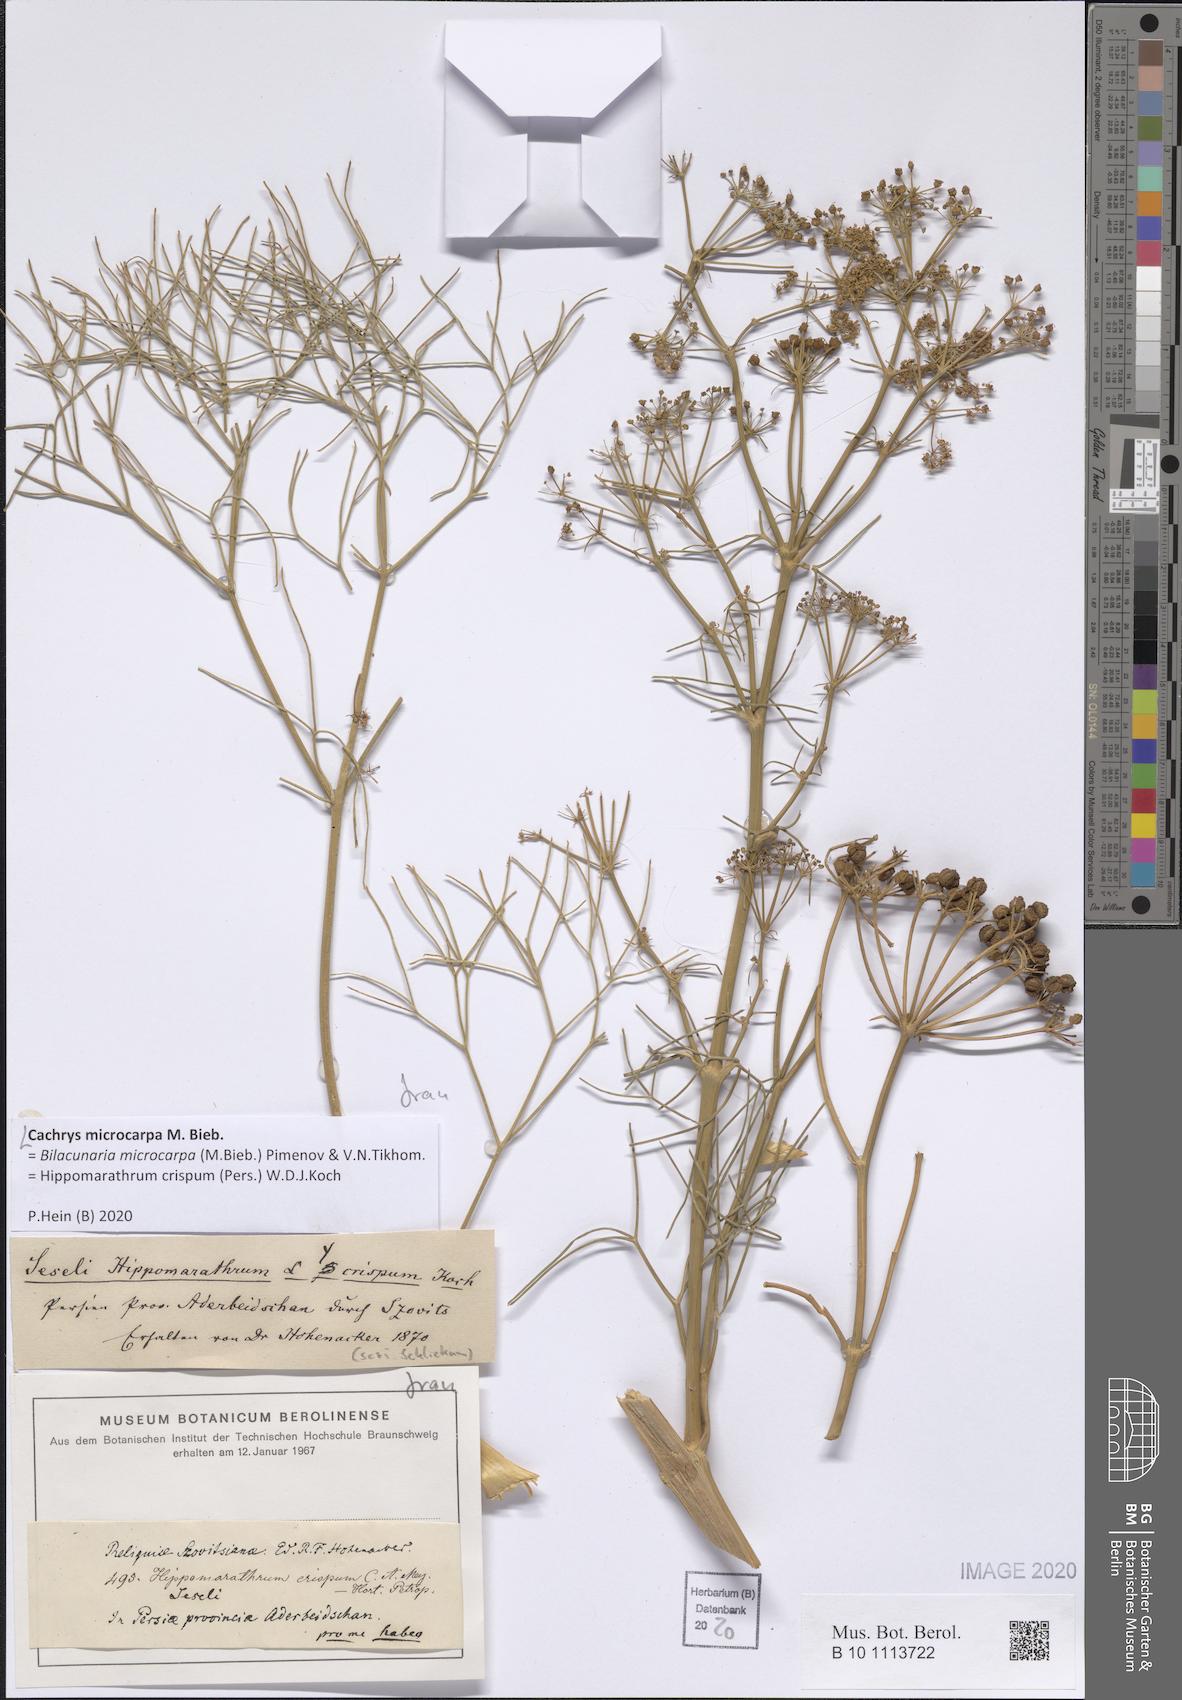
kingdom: Plantae
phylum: Tracheophyta
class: Magnoliopsida
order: Apiales
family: Apiaceae
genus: Bilacunaria
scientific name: Bilacunaria microcarpa
